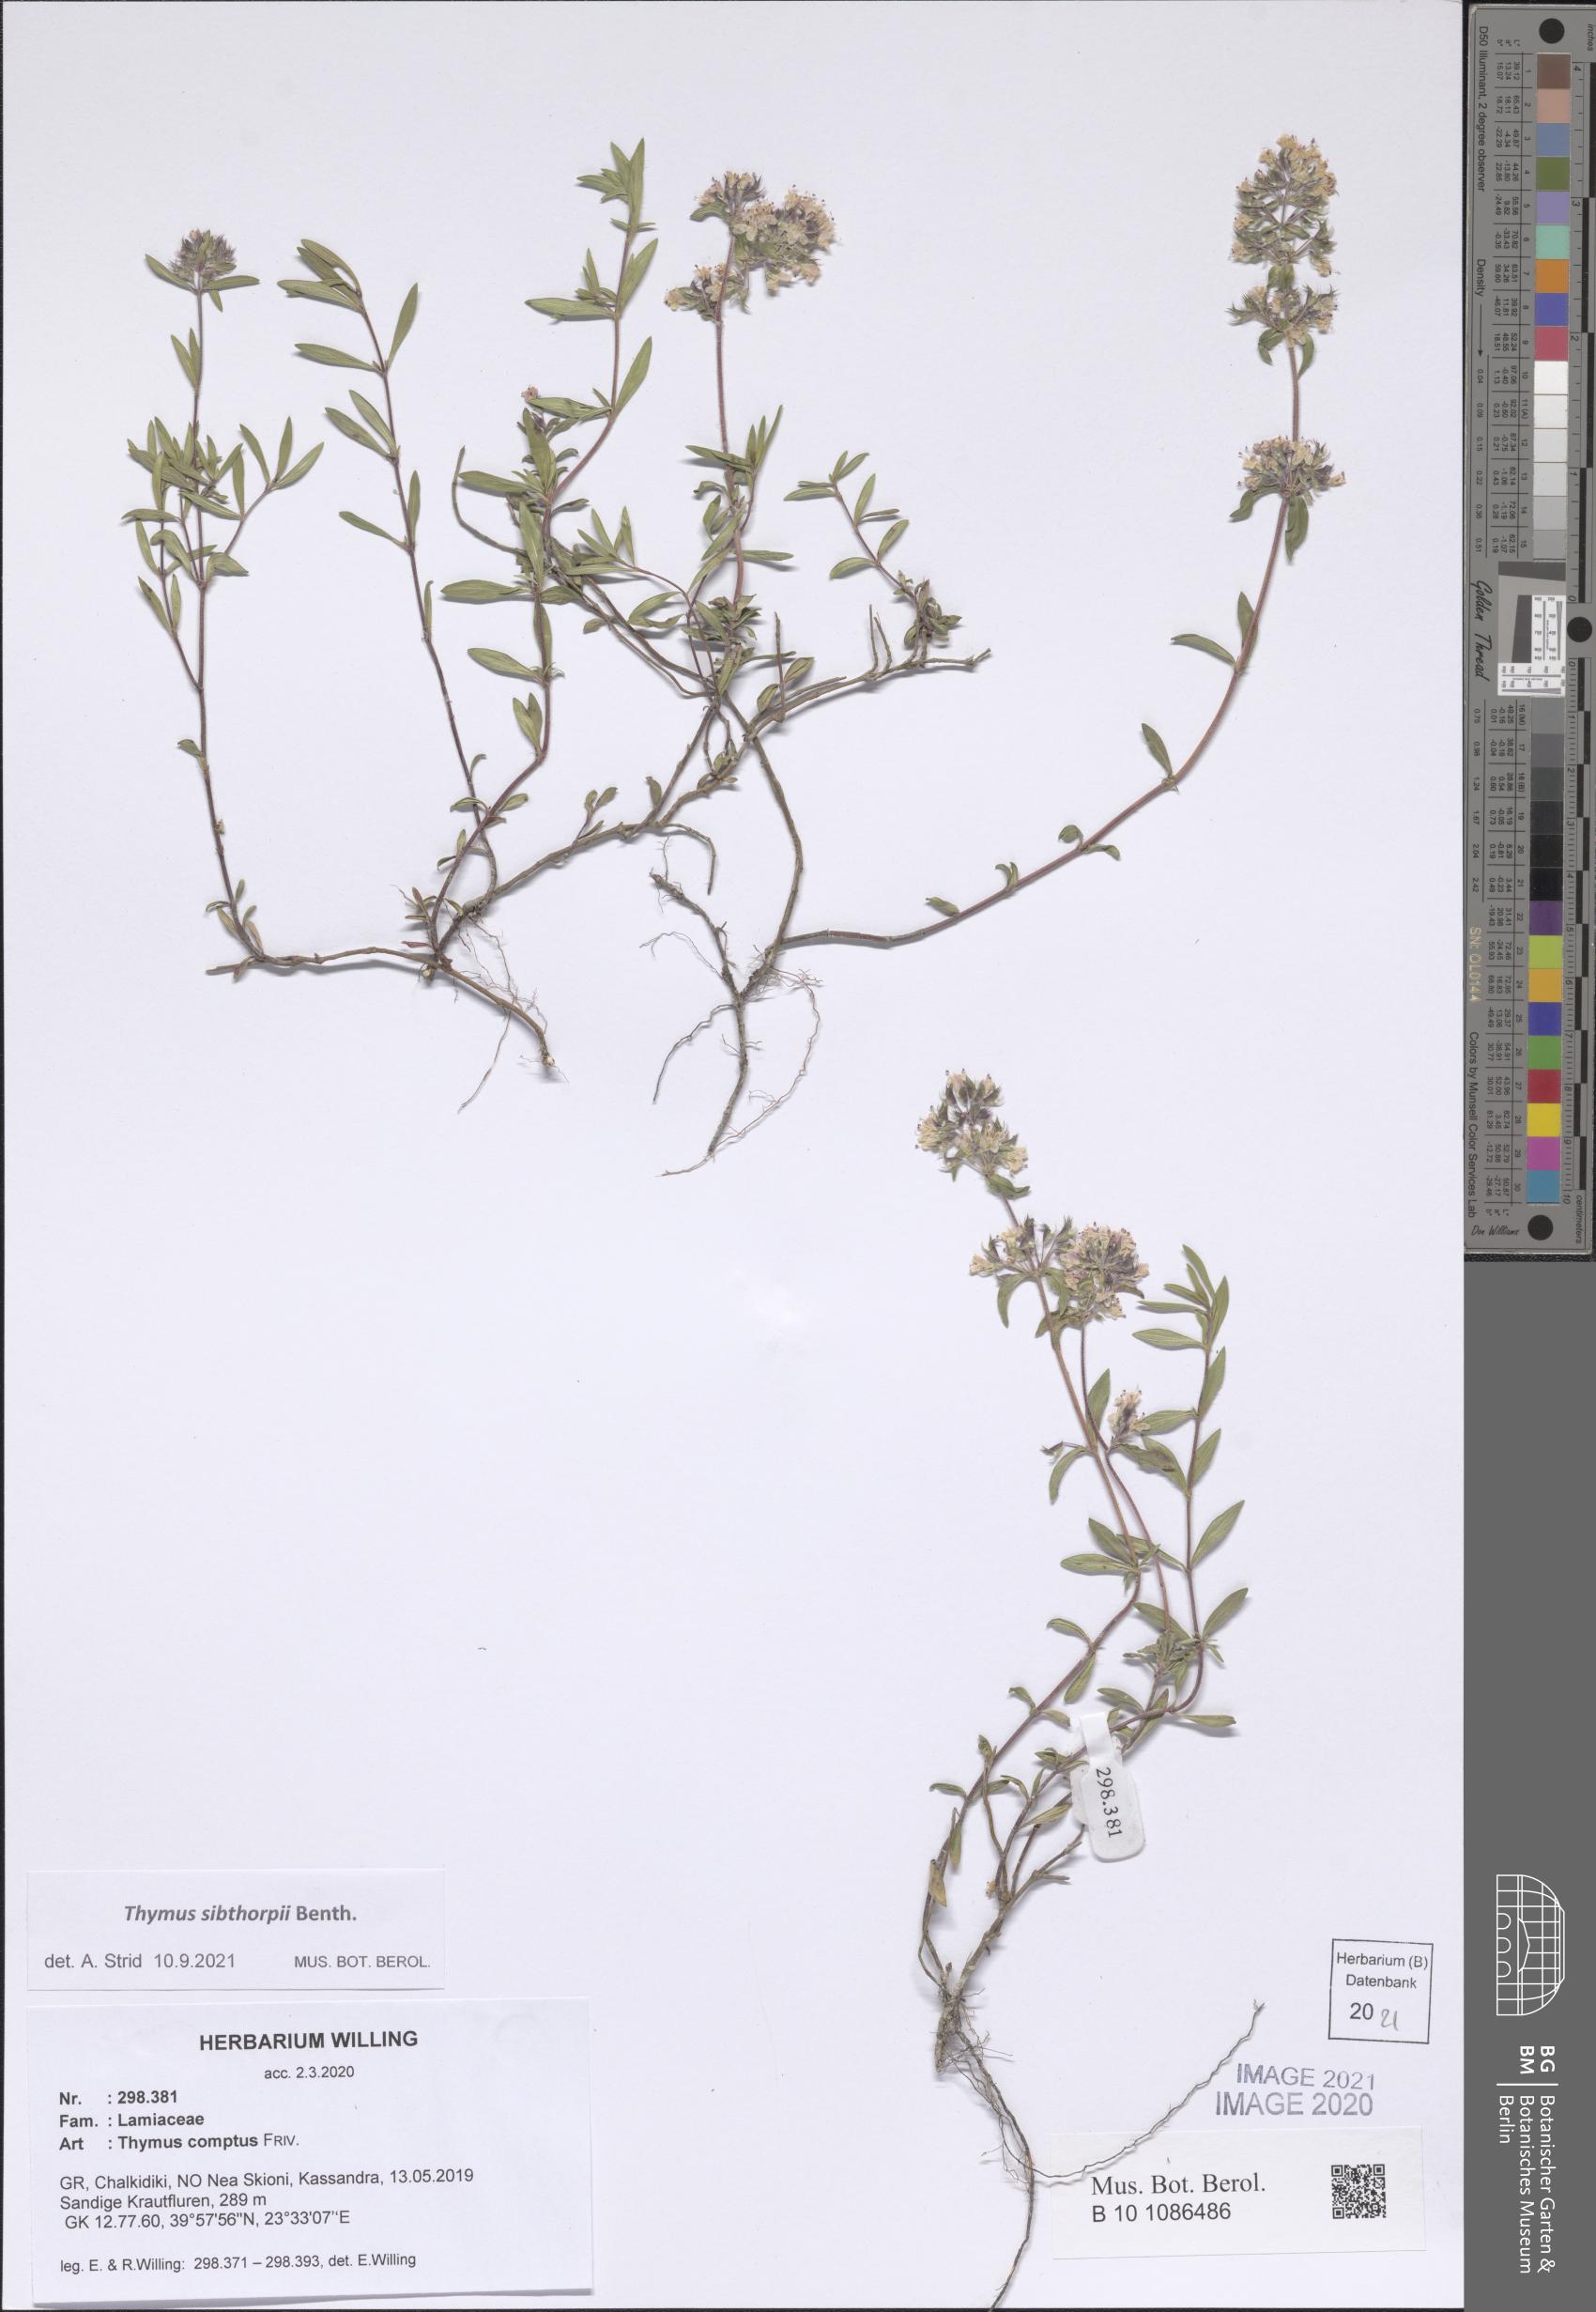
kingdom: Plantae
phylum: Tracheophyta
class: Magnoliopsida
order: Lamiales
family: Lamiaceae
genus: Thymus
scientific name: Thymus sibthorpii
